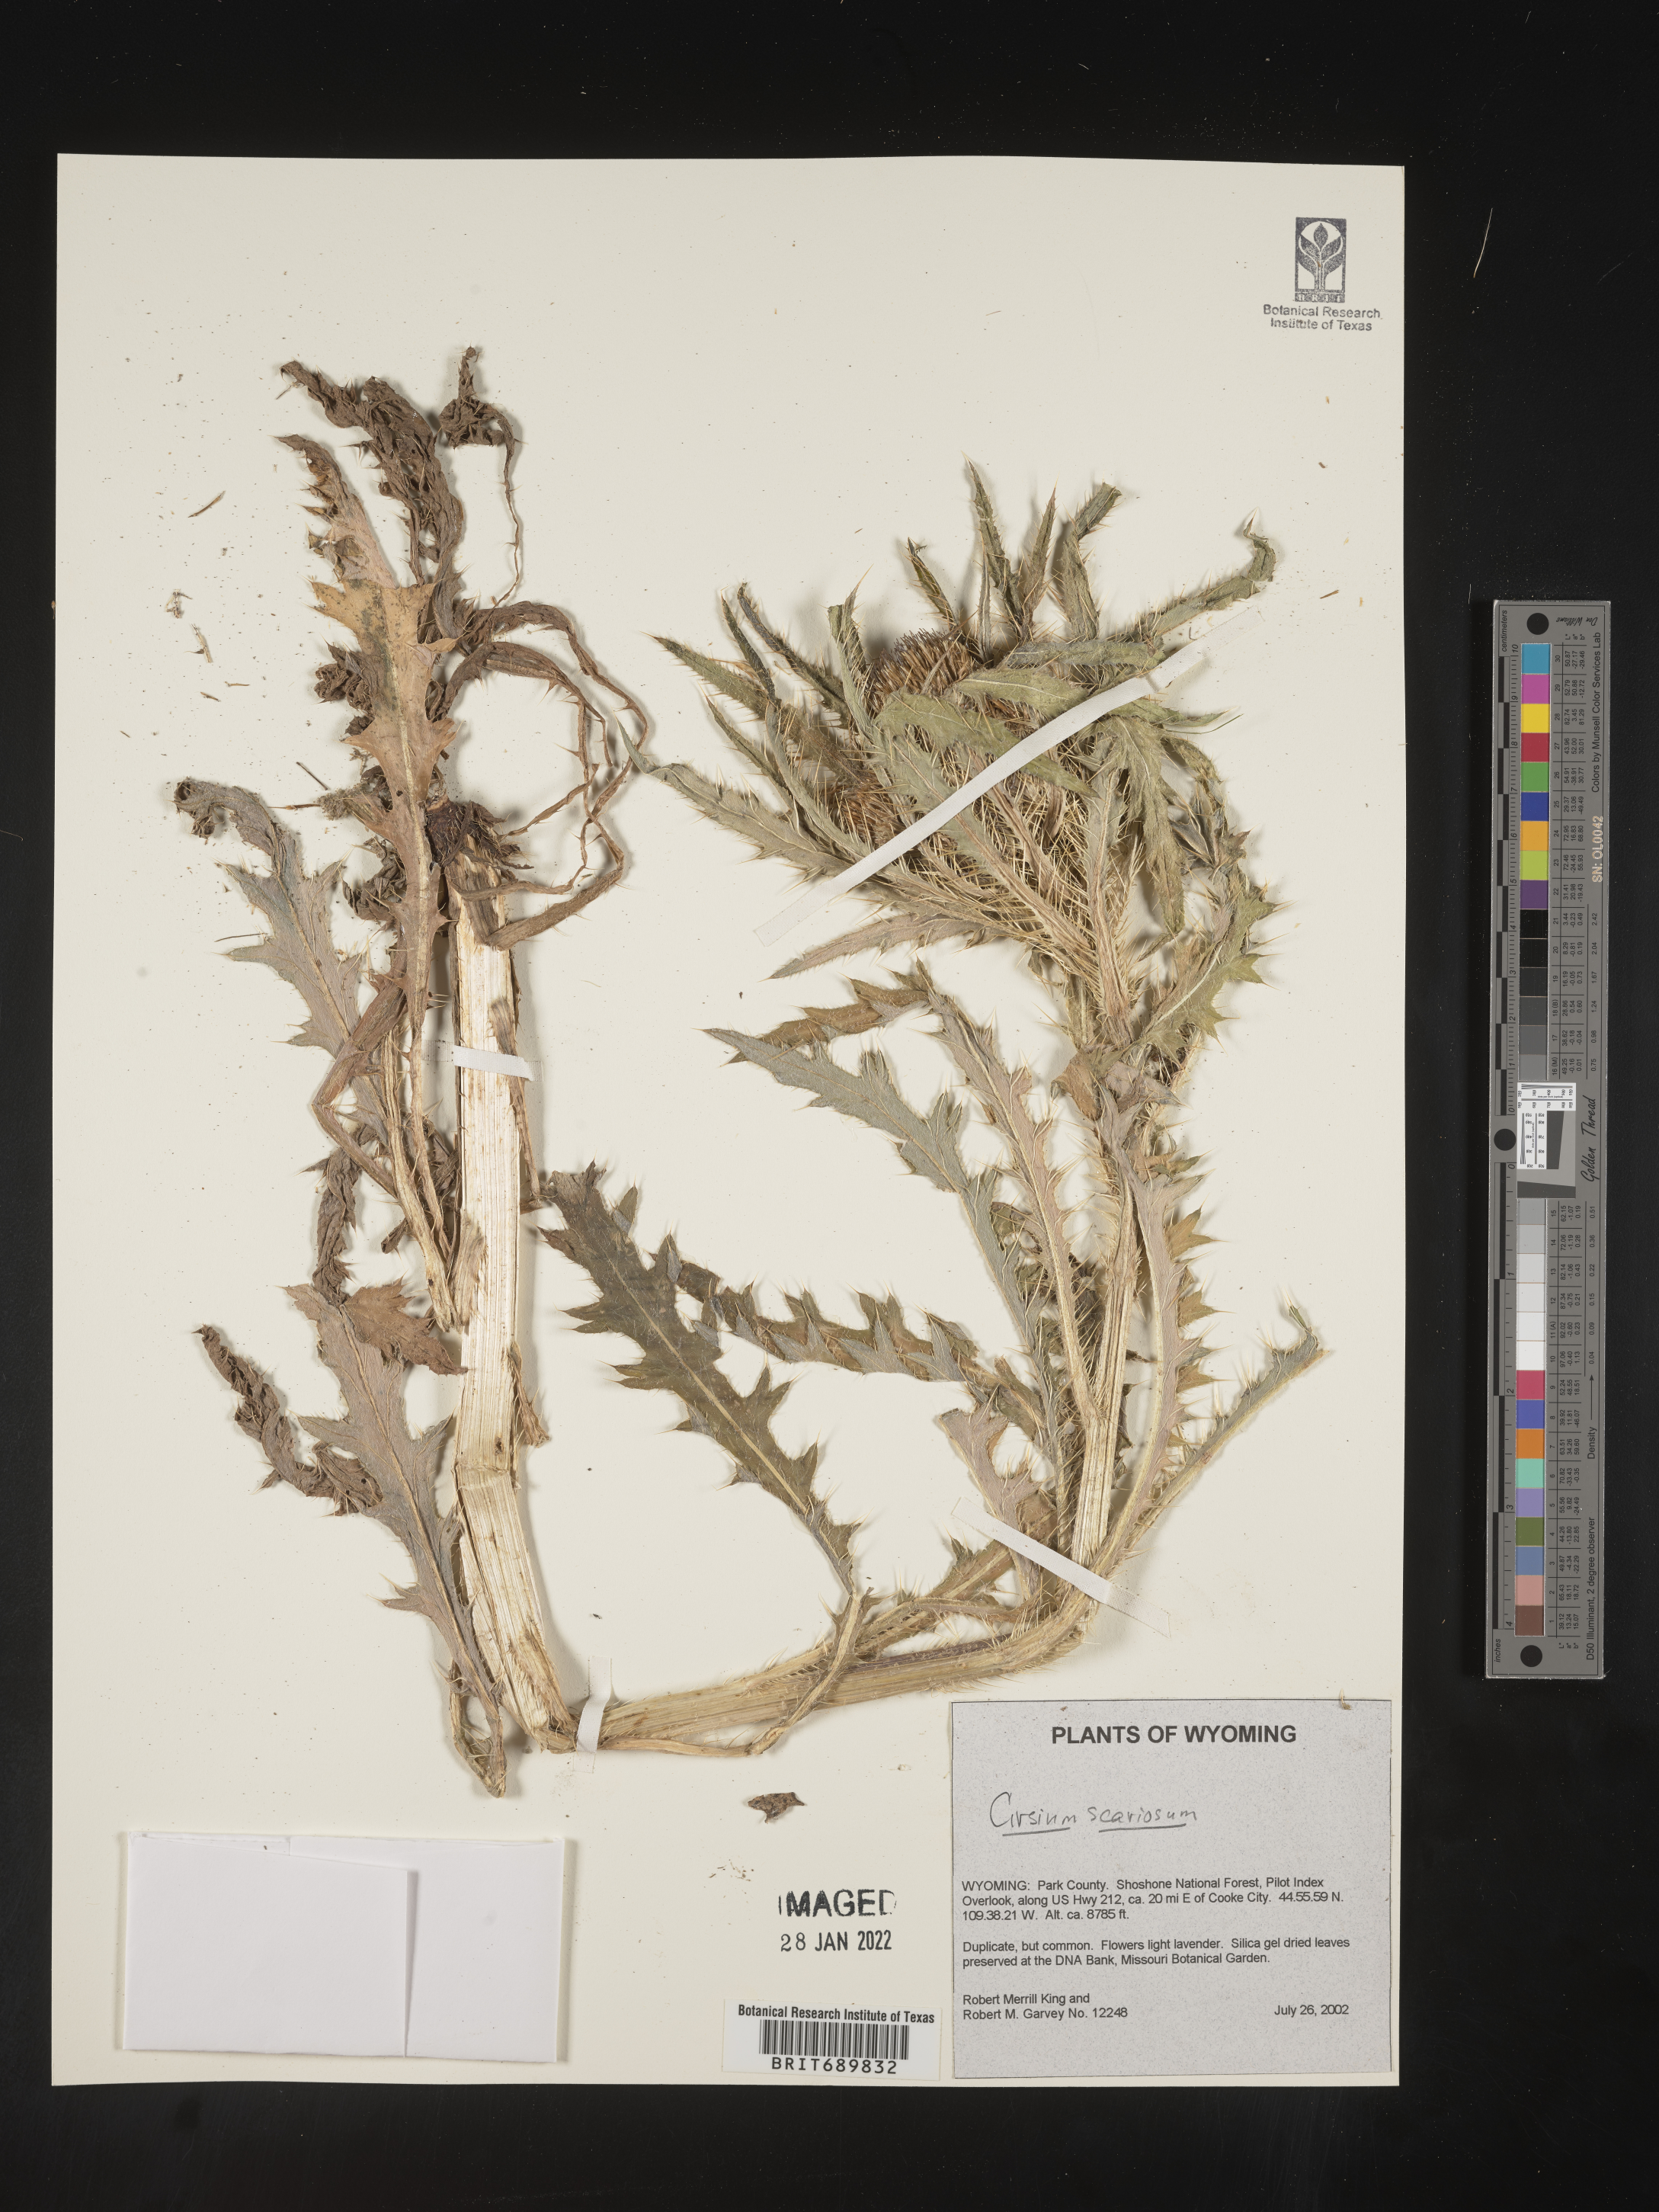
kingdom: Plantae
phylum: Tracheophyta
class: Magnoliopsida
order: Asterales
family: Asteraceae
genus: Cirsium
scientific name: Cirsium scariosum
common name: Meadow thistle
